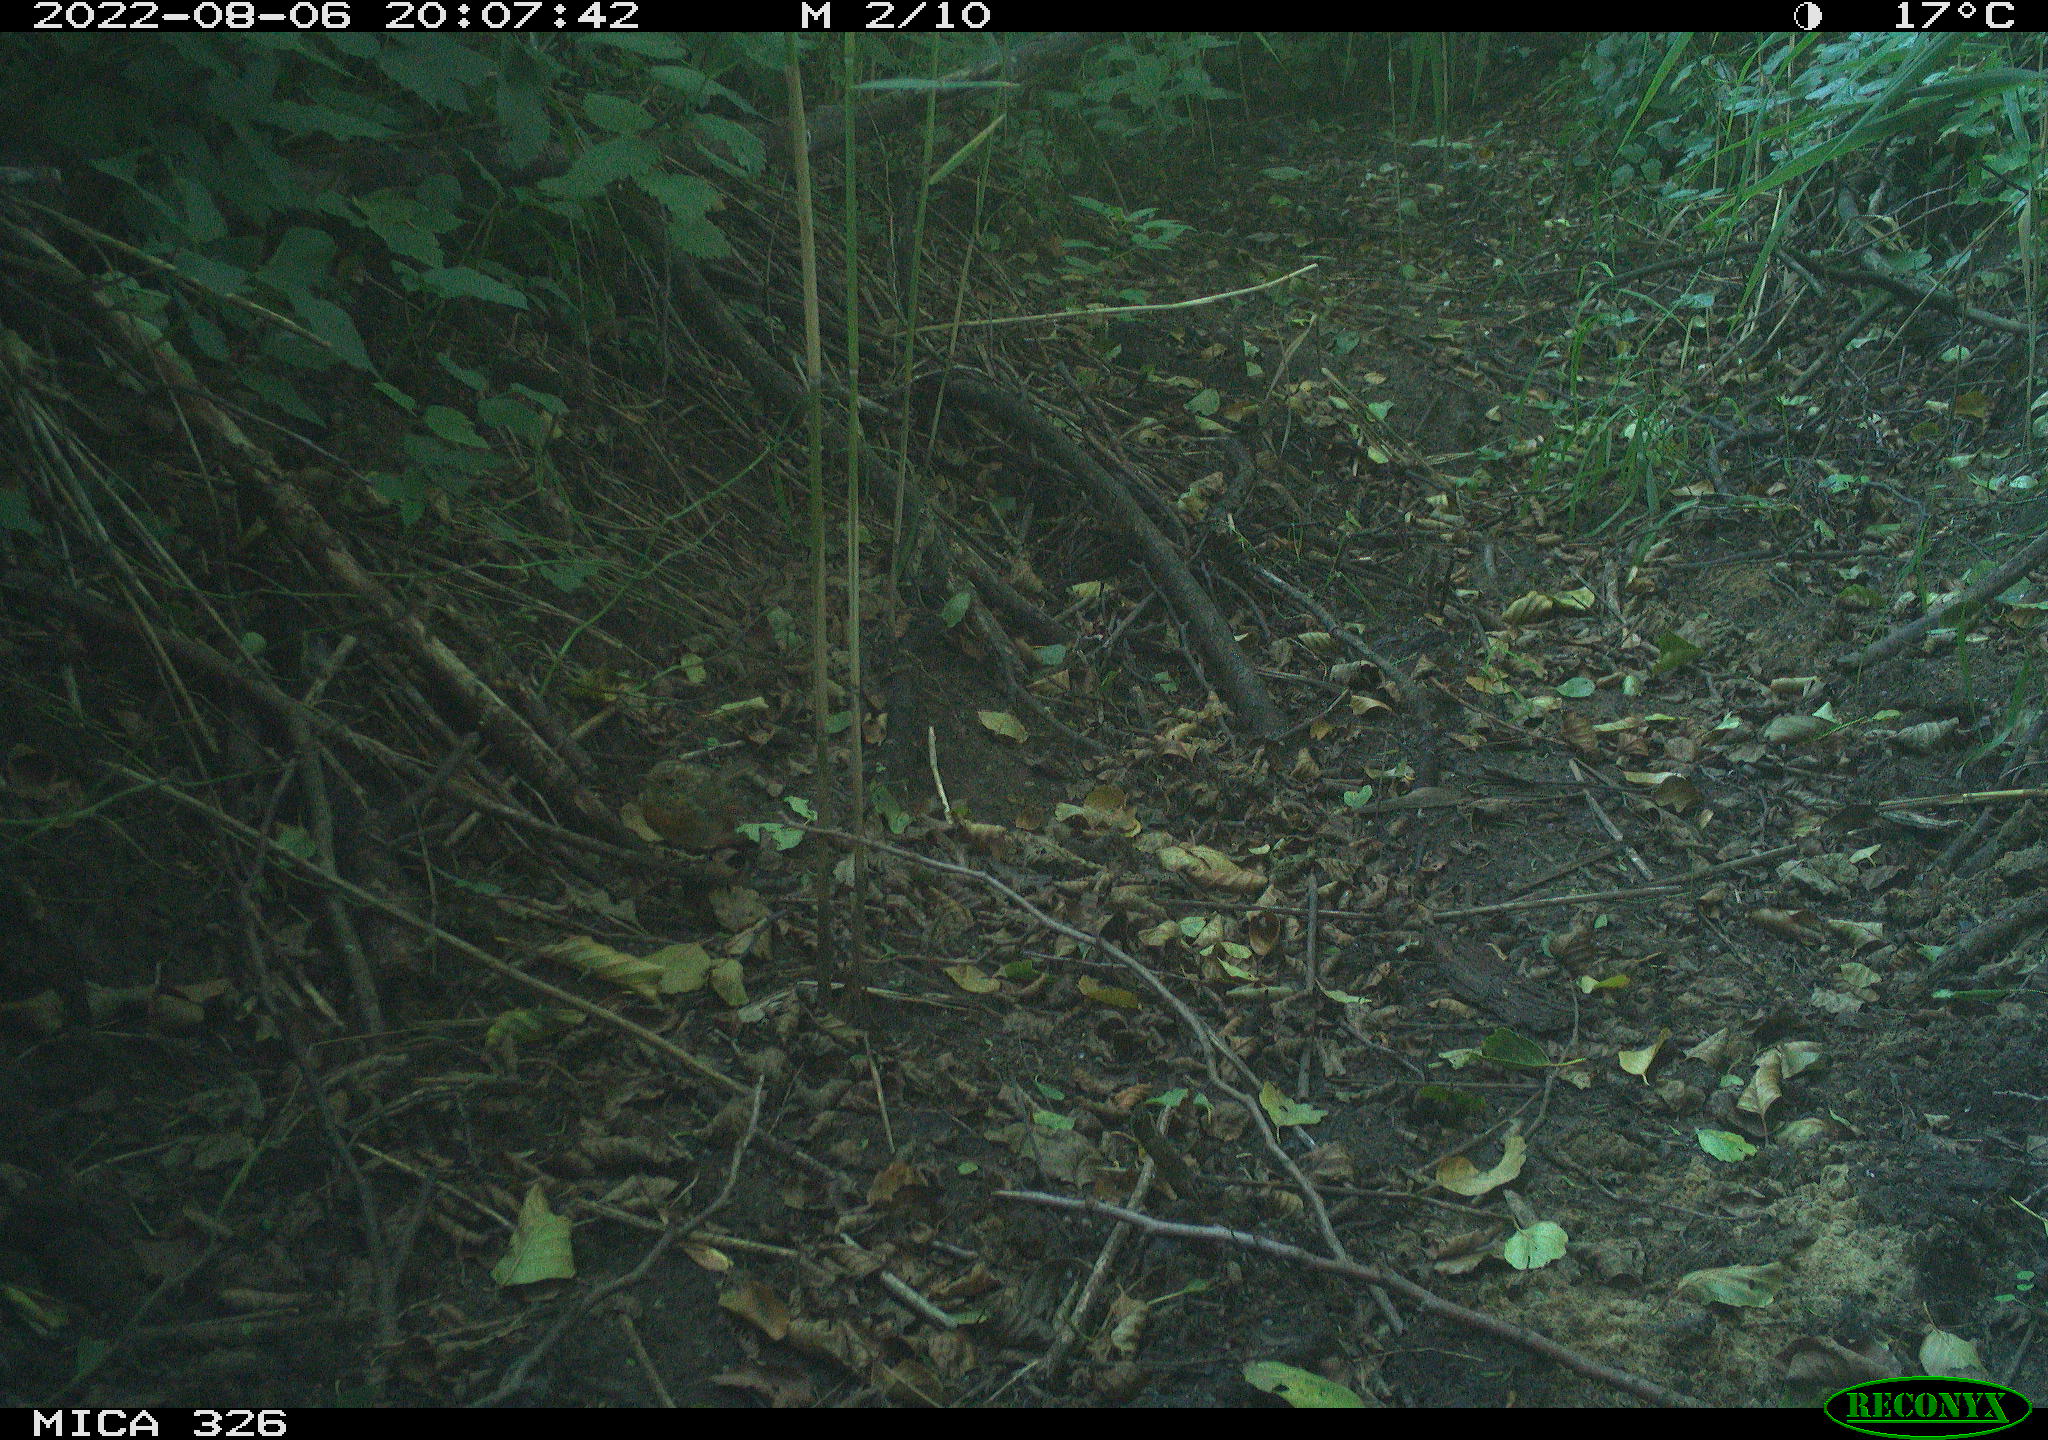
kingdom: Animalia
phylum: Chordata
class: Aves
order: Passeriformes
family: Muscicapidae
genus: Erithacus
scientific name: Erithacus rubecula
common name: European robin
